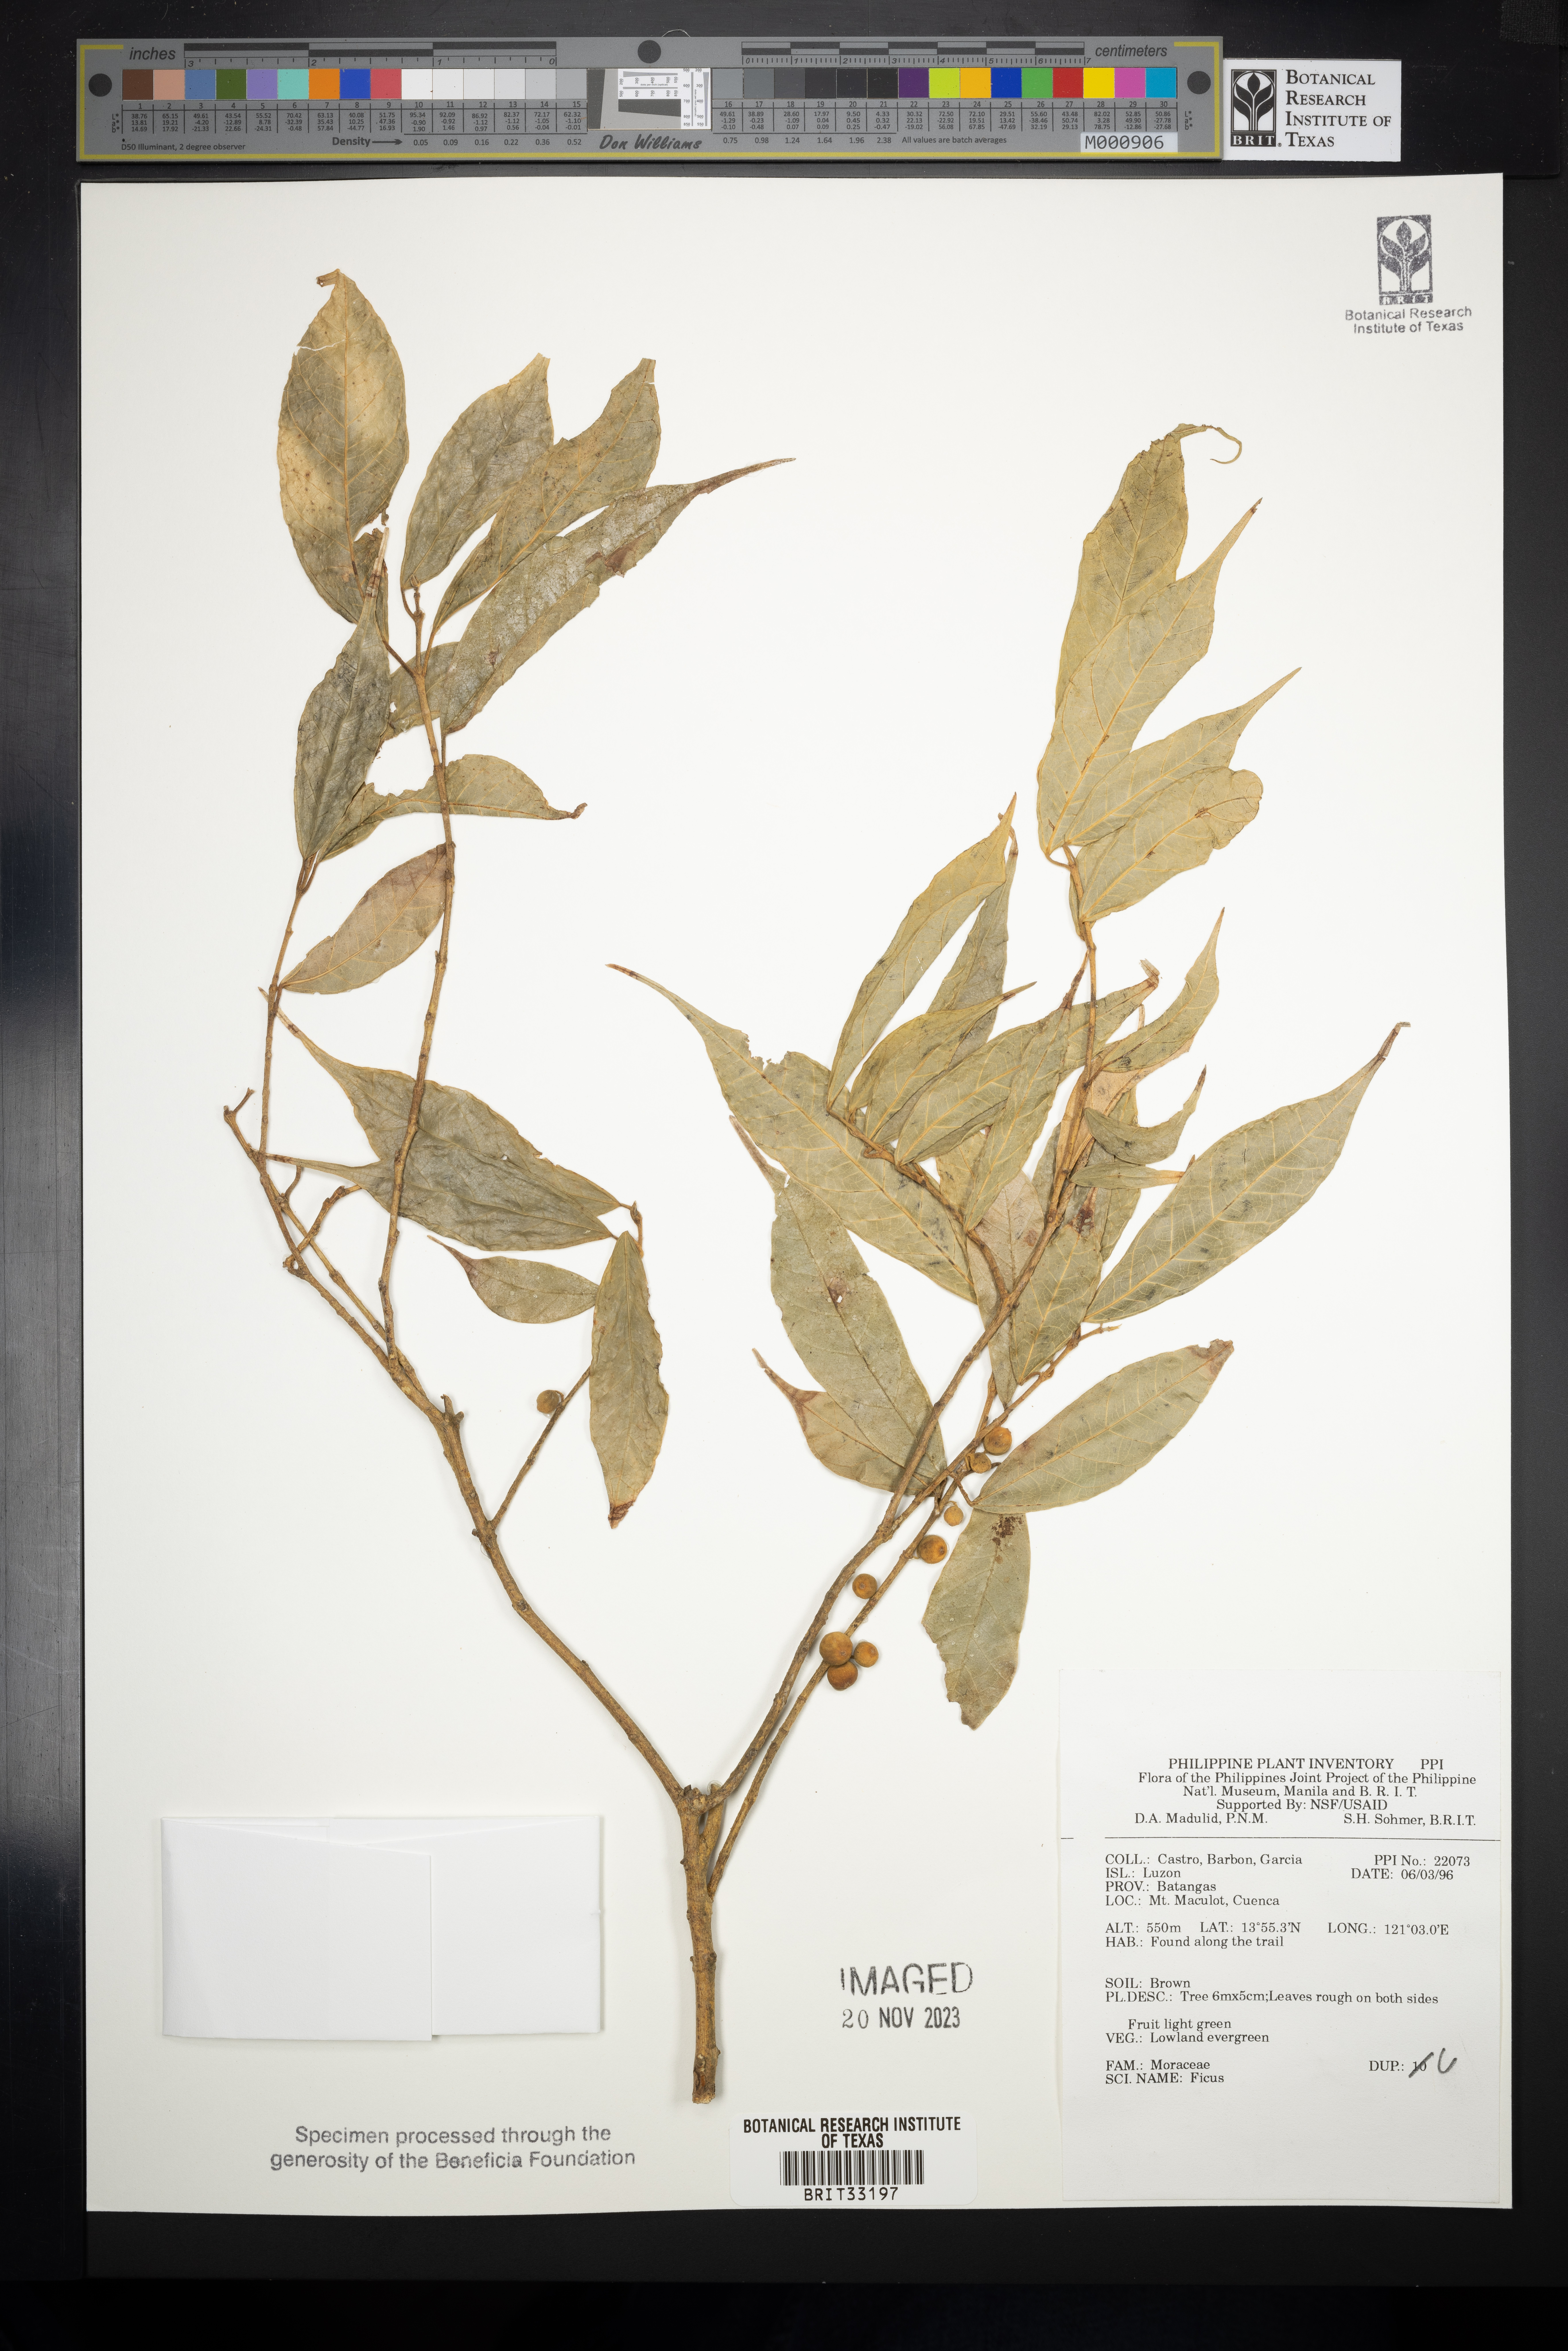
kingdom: Plantae
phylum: Tracheophyta
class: Magnoliopsida
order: Rosales
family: Moraceae
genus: Ficus
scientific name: Ficus
